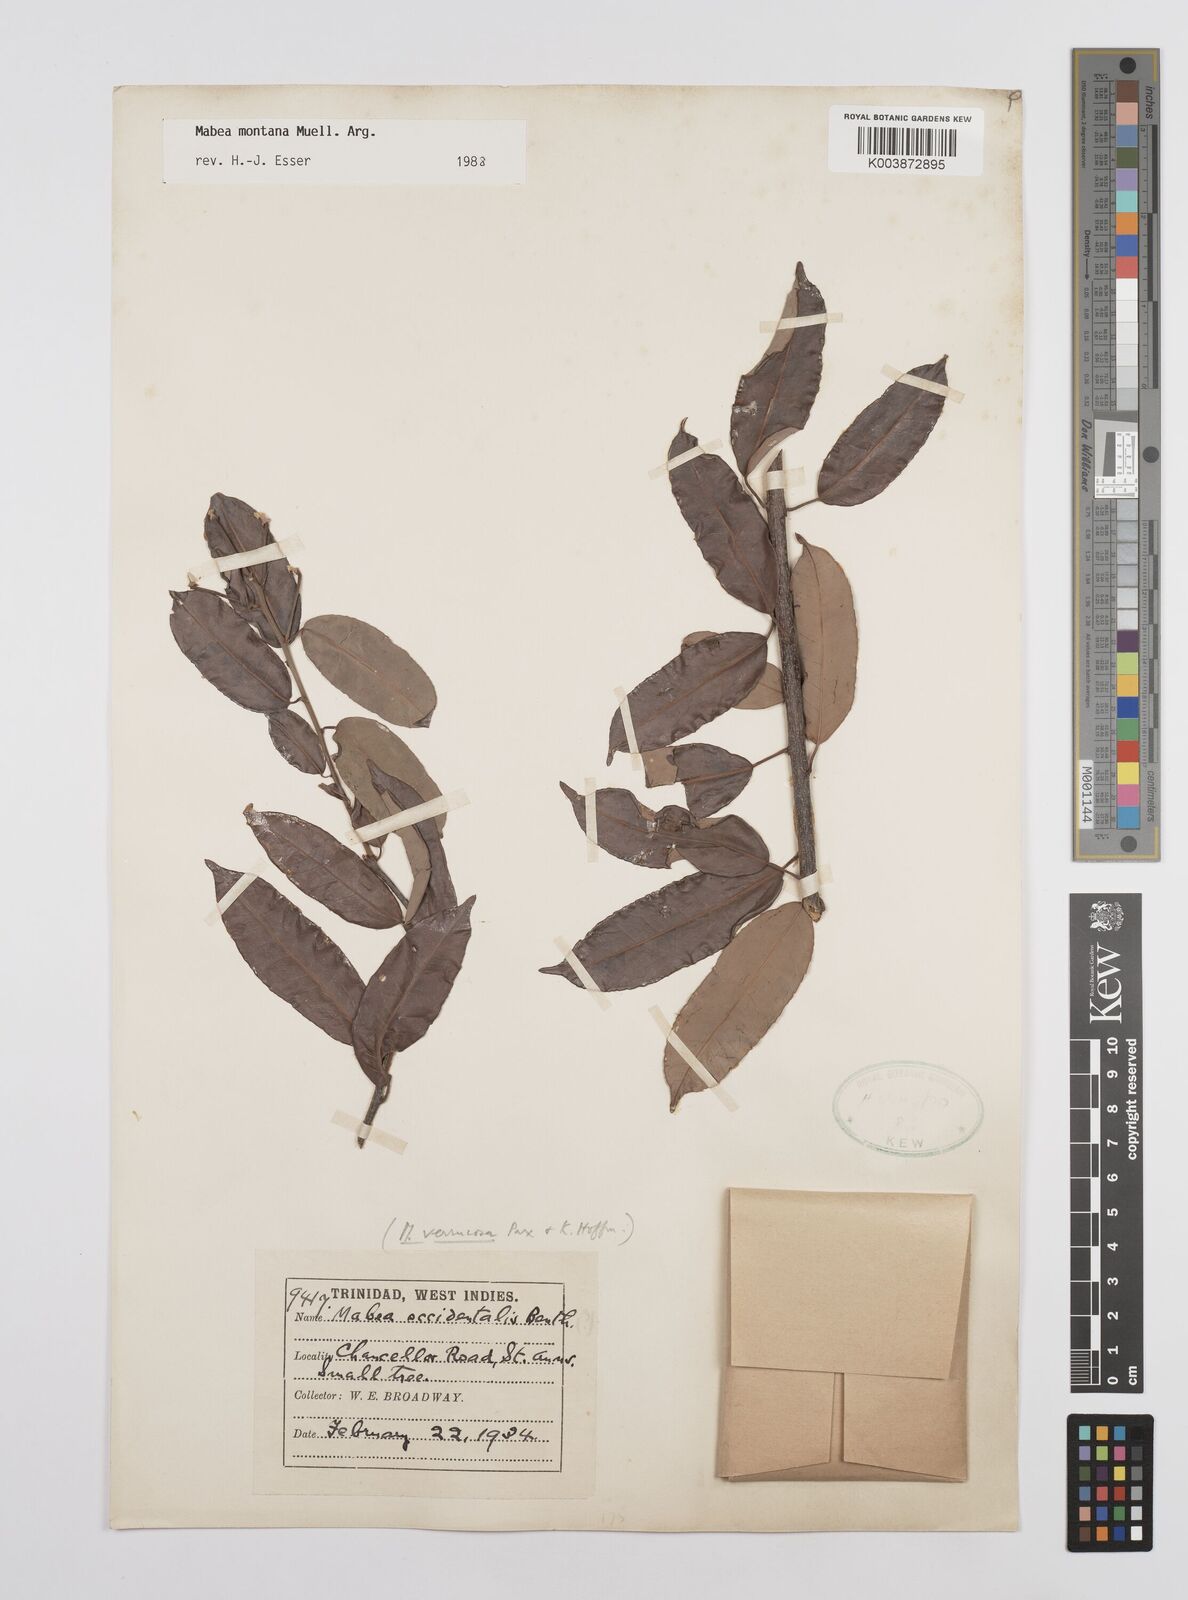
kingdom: Plantae
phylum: Tracheophyta
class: Magnoliopsida
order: Malpighiales
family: Euphorbiaceae
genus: Mabea
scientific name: Mabea montana
